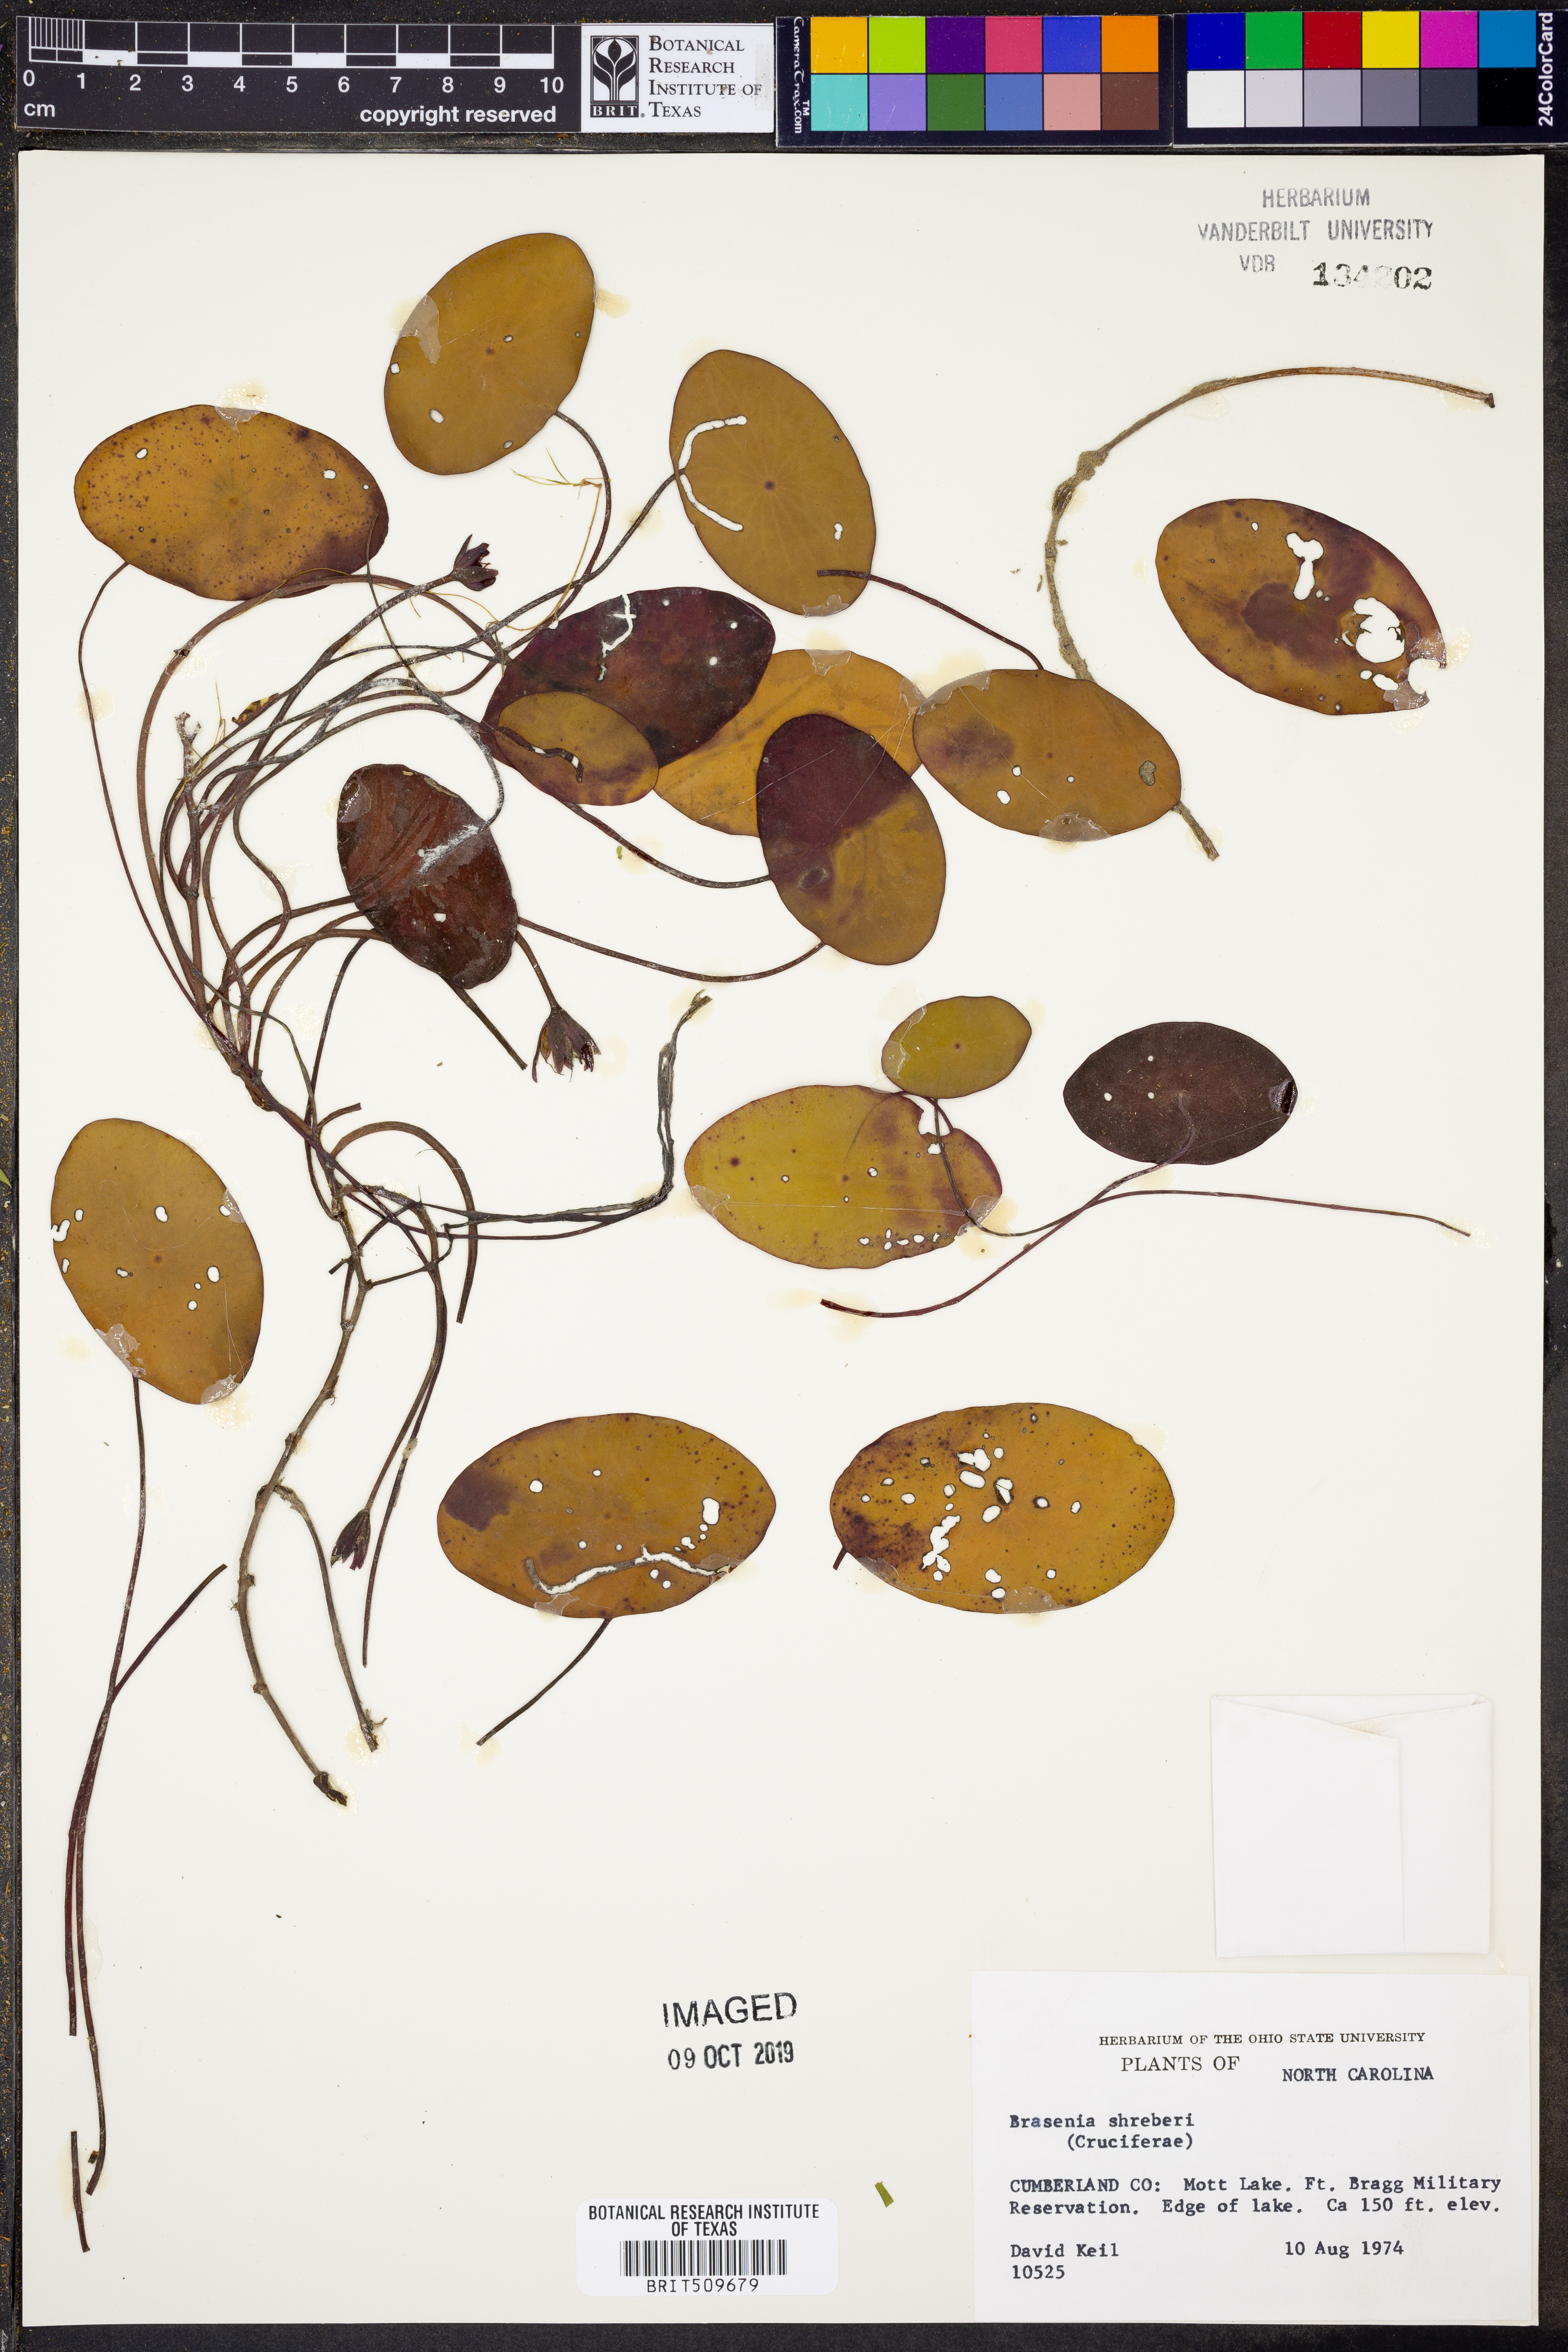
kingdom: Plantae
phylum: Tracheophyta
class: Magnoliopsida
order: Nymphaeales
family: Cabombaceae
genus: Brasenia
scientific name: Brasenia schreberi
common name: Water-shield
